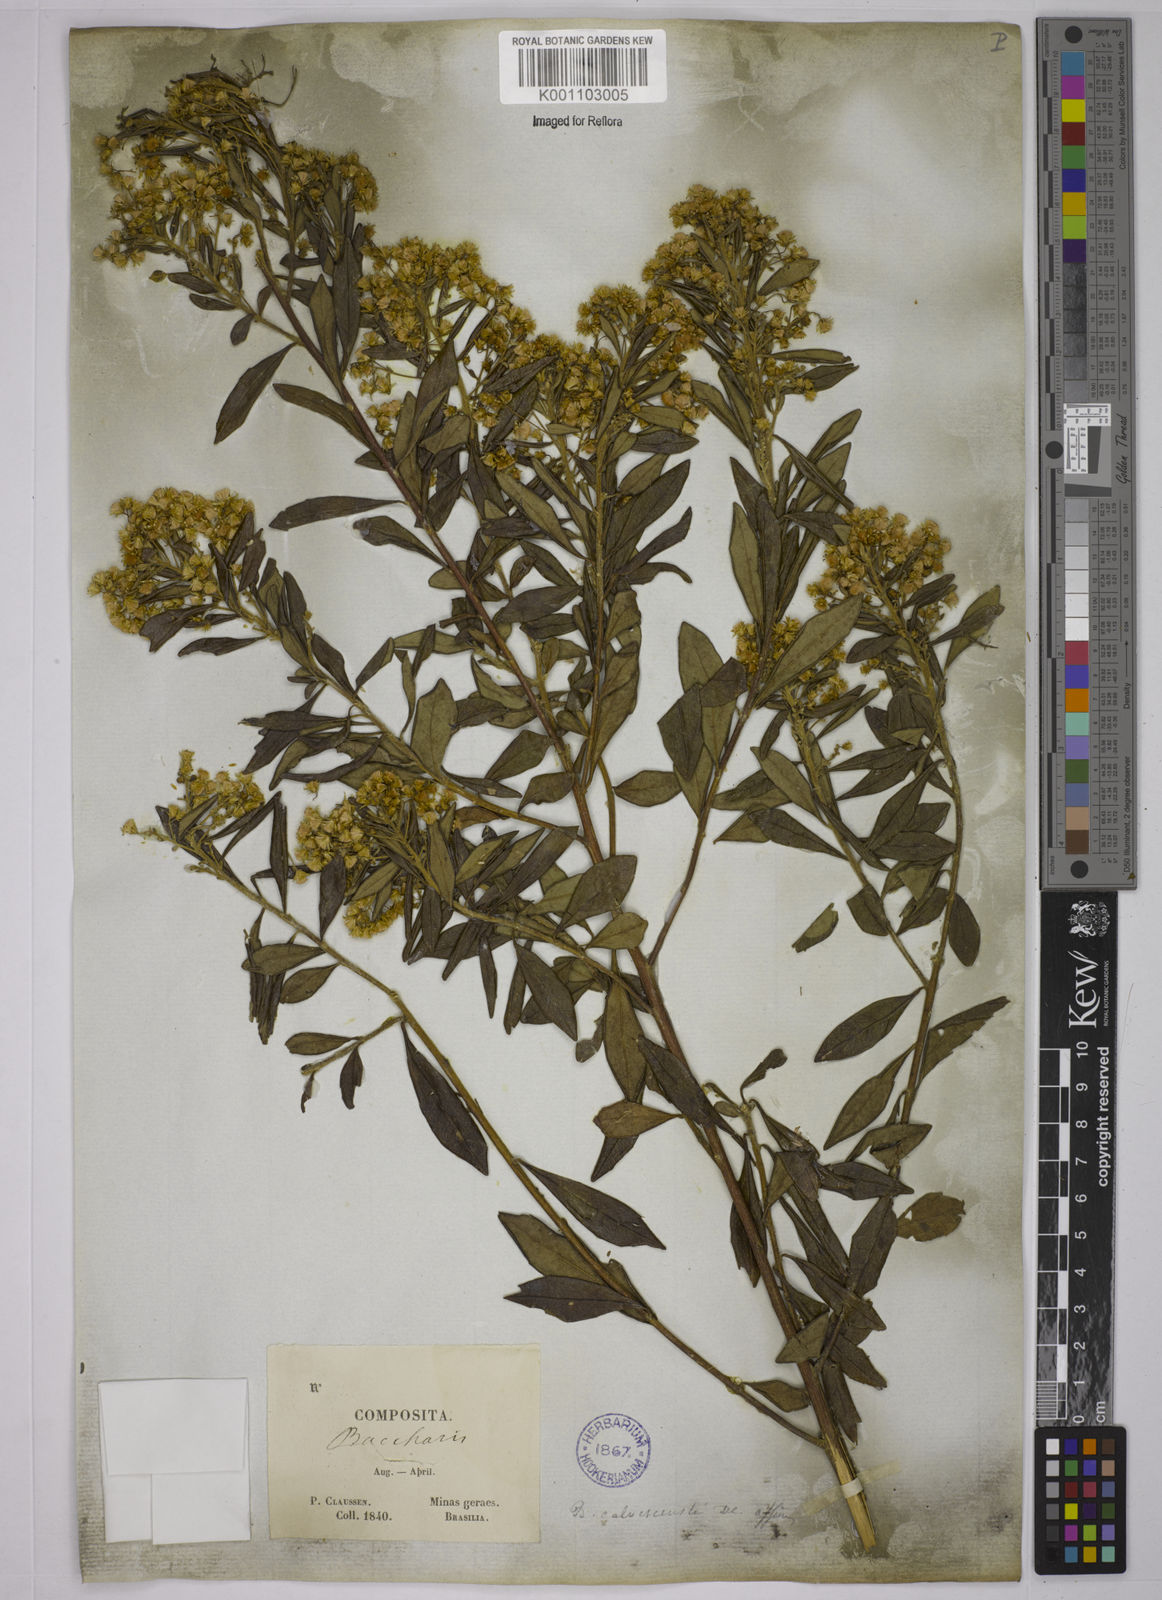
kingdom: Plantae
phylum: Tracheophyta
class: Magnoliopsida
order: Asterales
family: Asteraceae
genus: Baccharis
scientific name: Baccharis calvescens
